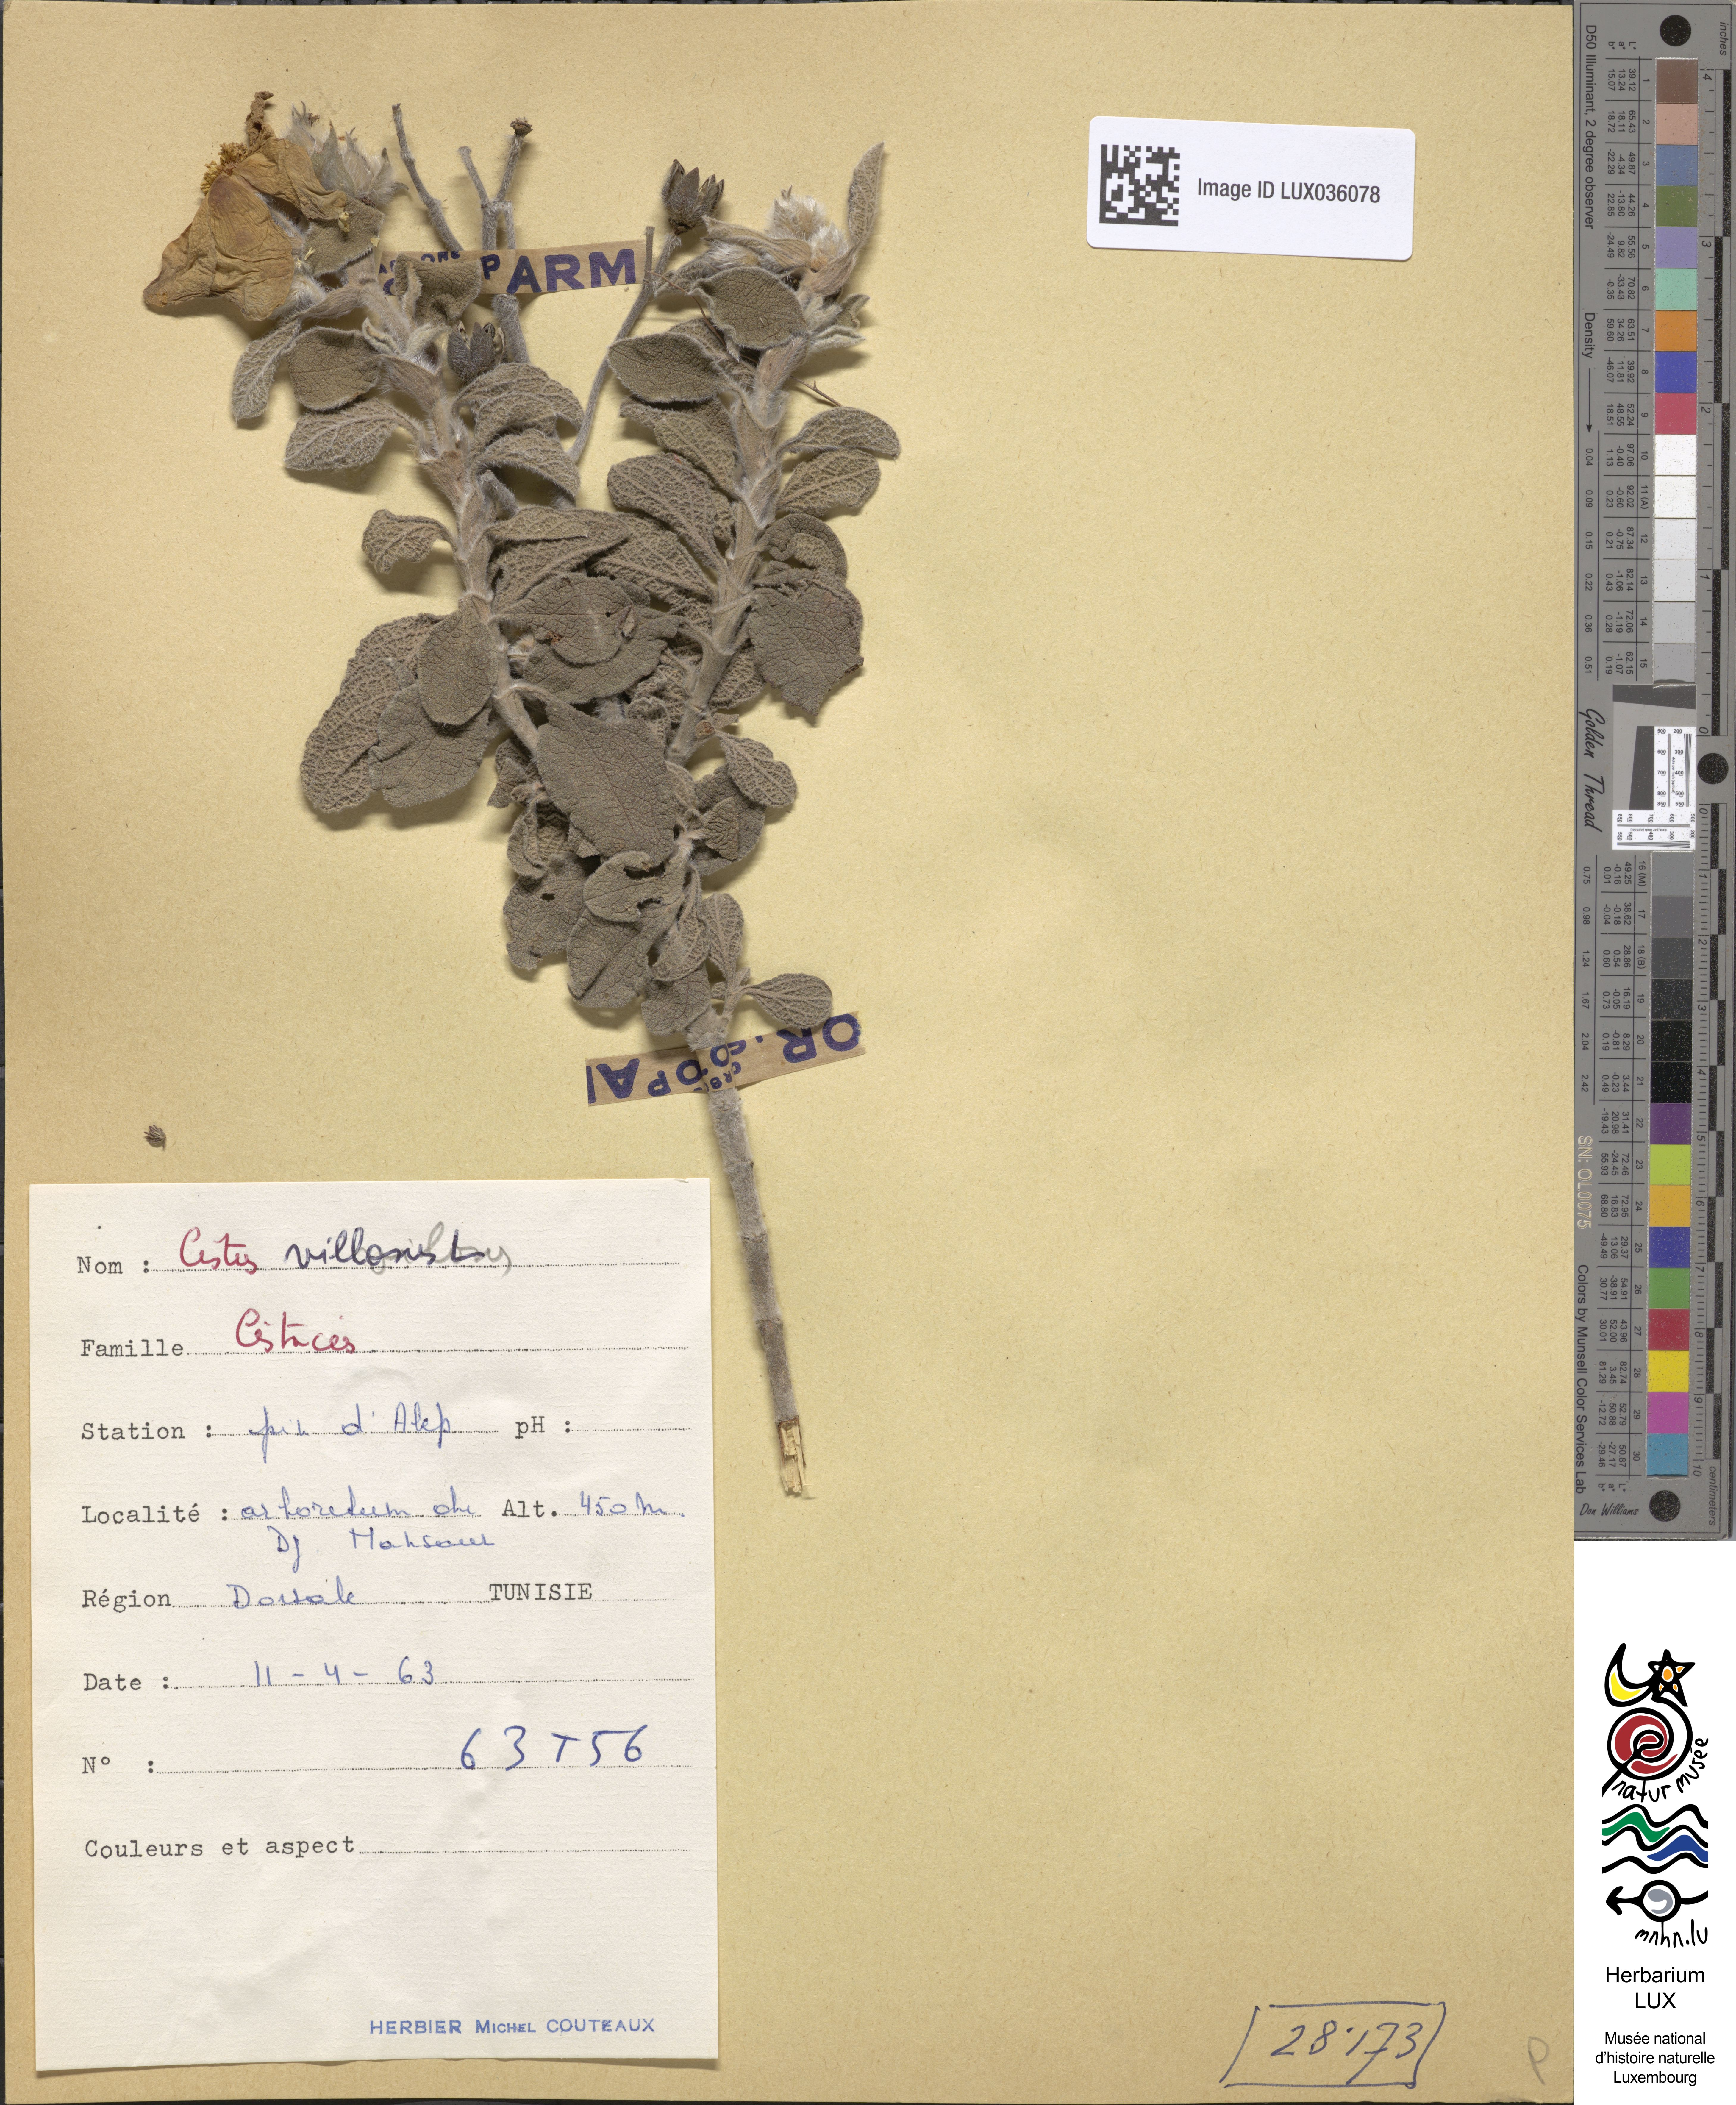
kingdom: Plantae
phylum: Tracheophyta
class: Magnoliopsida
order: Malvales
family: Cistaceae
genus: Cistus
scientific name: Cistus incanus
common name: Hairy rockrose
